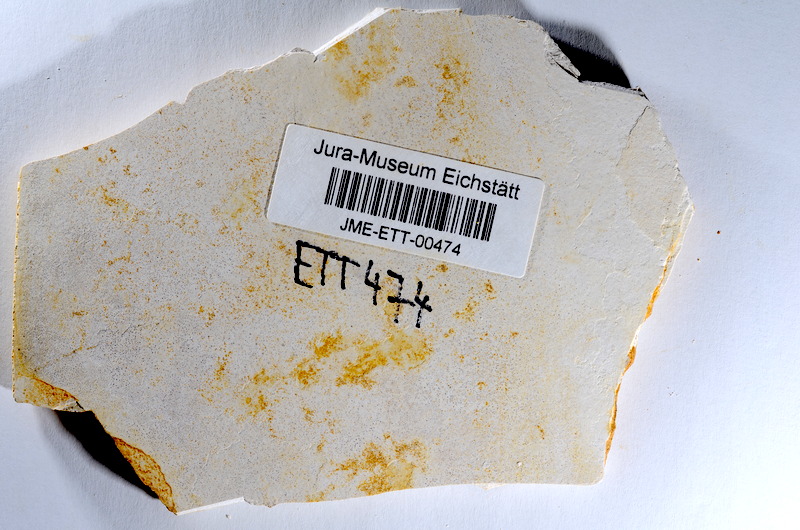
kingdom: Animalia
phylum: Chordata
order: Salmoniformes
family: Orthogonikleithridae
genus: Orthogonikleithrus
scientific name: Orthogonikleithrus hoelli
